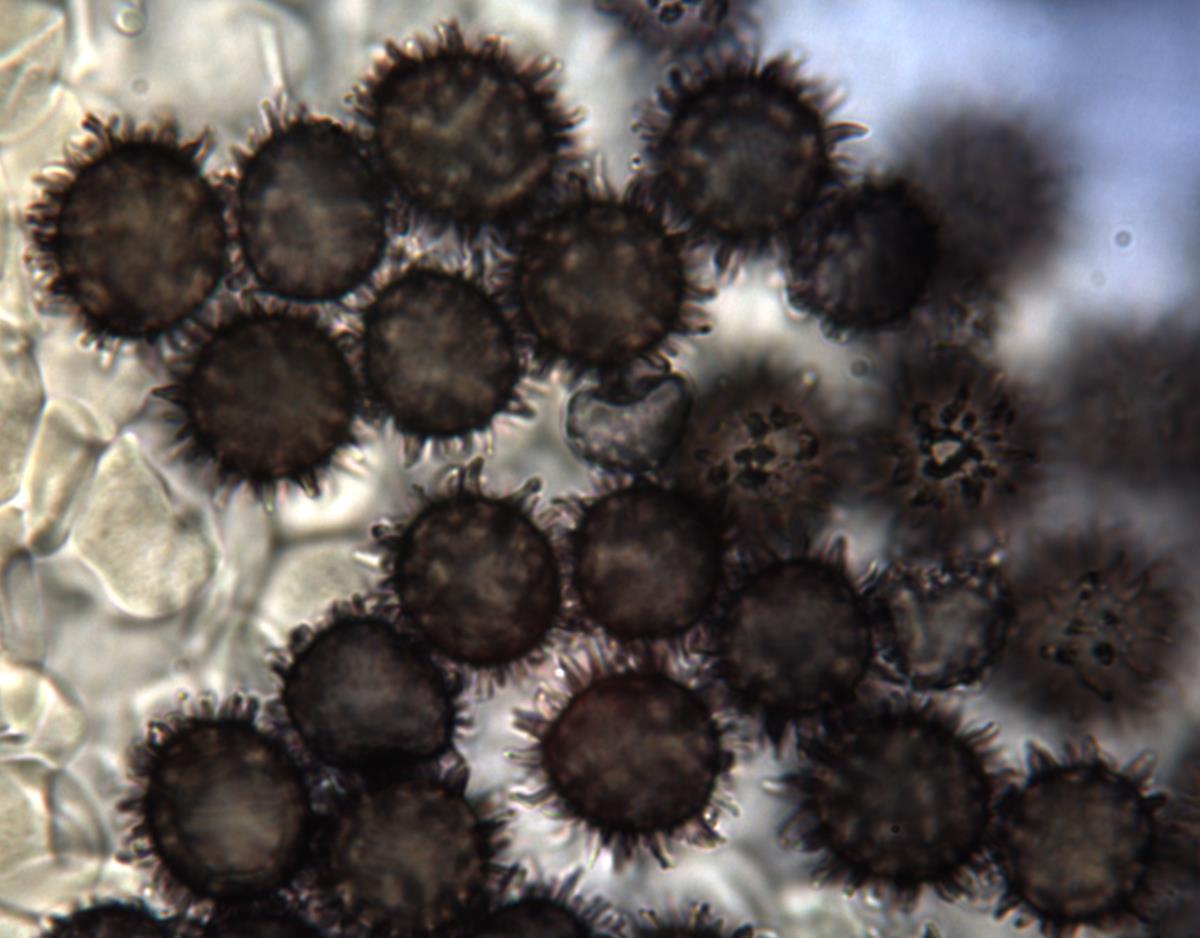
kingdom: Fungi
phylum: Basidiomycota
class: Agaricomycetes
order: Russulales
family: Russulaceae
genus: Russula
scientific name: Russula osphranticarpa
